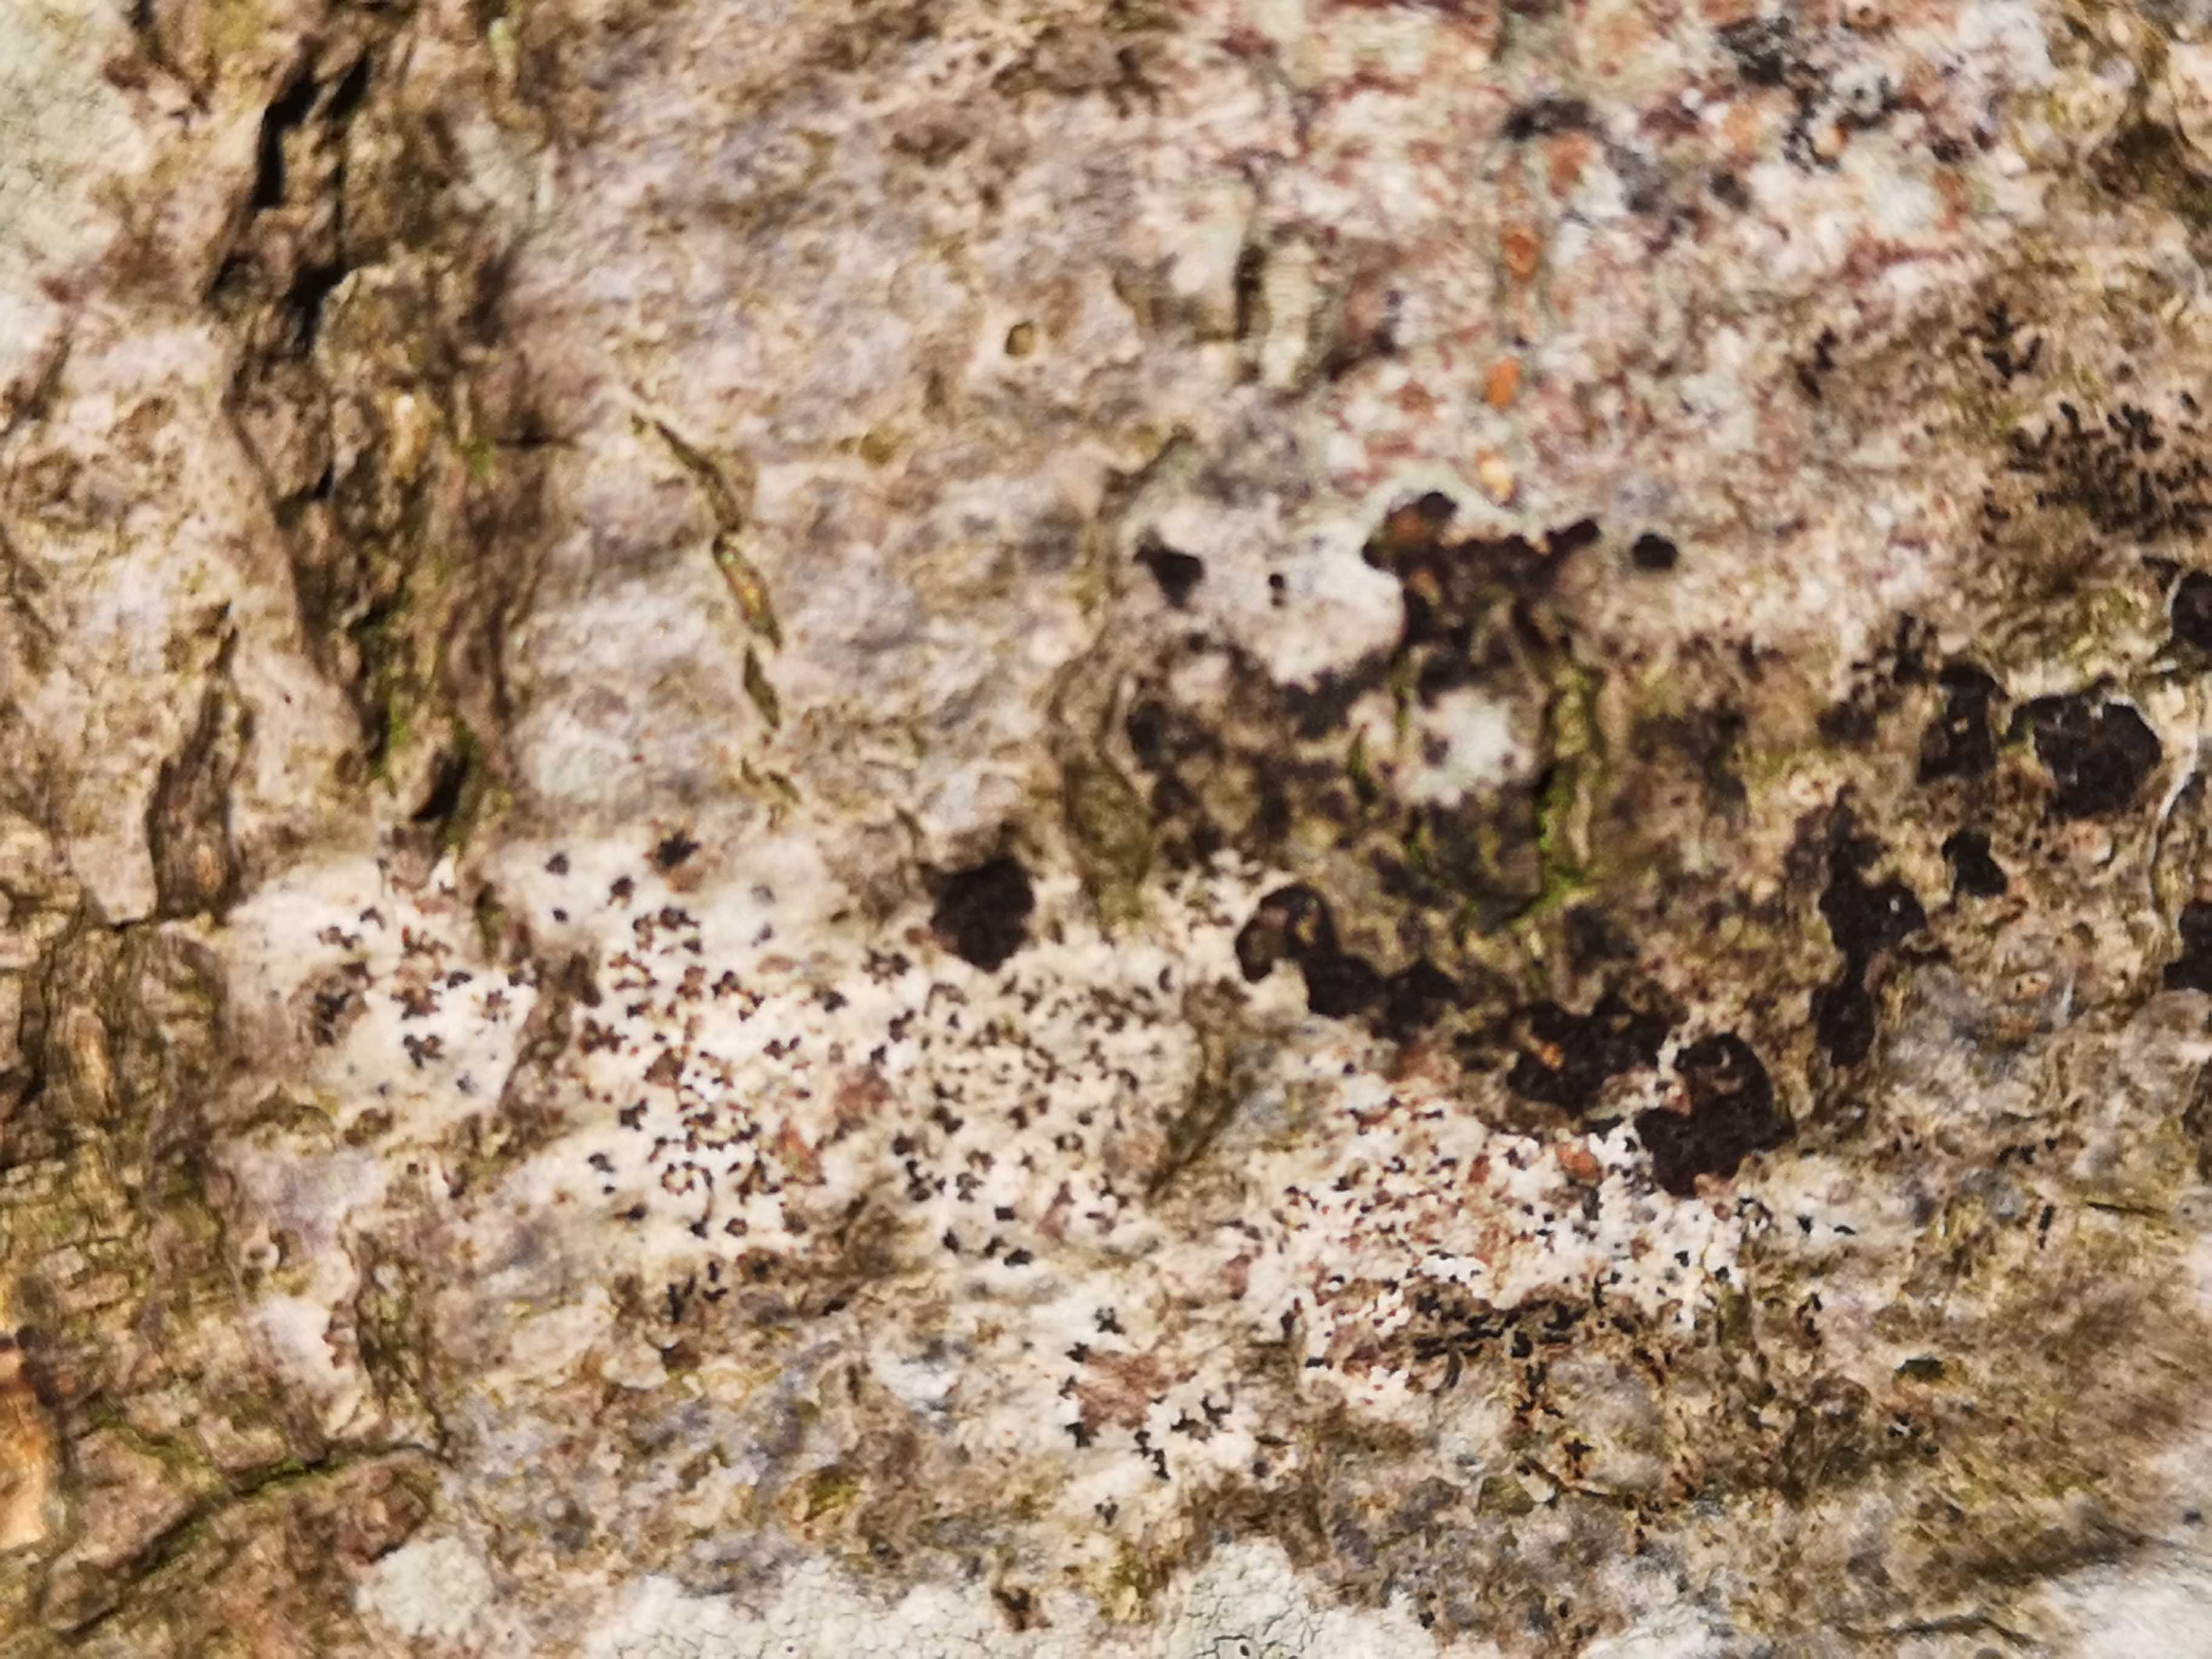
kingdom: Fungi
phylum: Ascomycota
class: Arthoniomycetes
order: Arthoniales
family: Arthoniaceae
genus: Arthonia
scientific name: Arthonia radiata
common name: stjerne-pletlav
